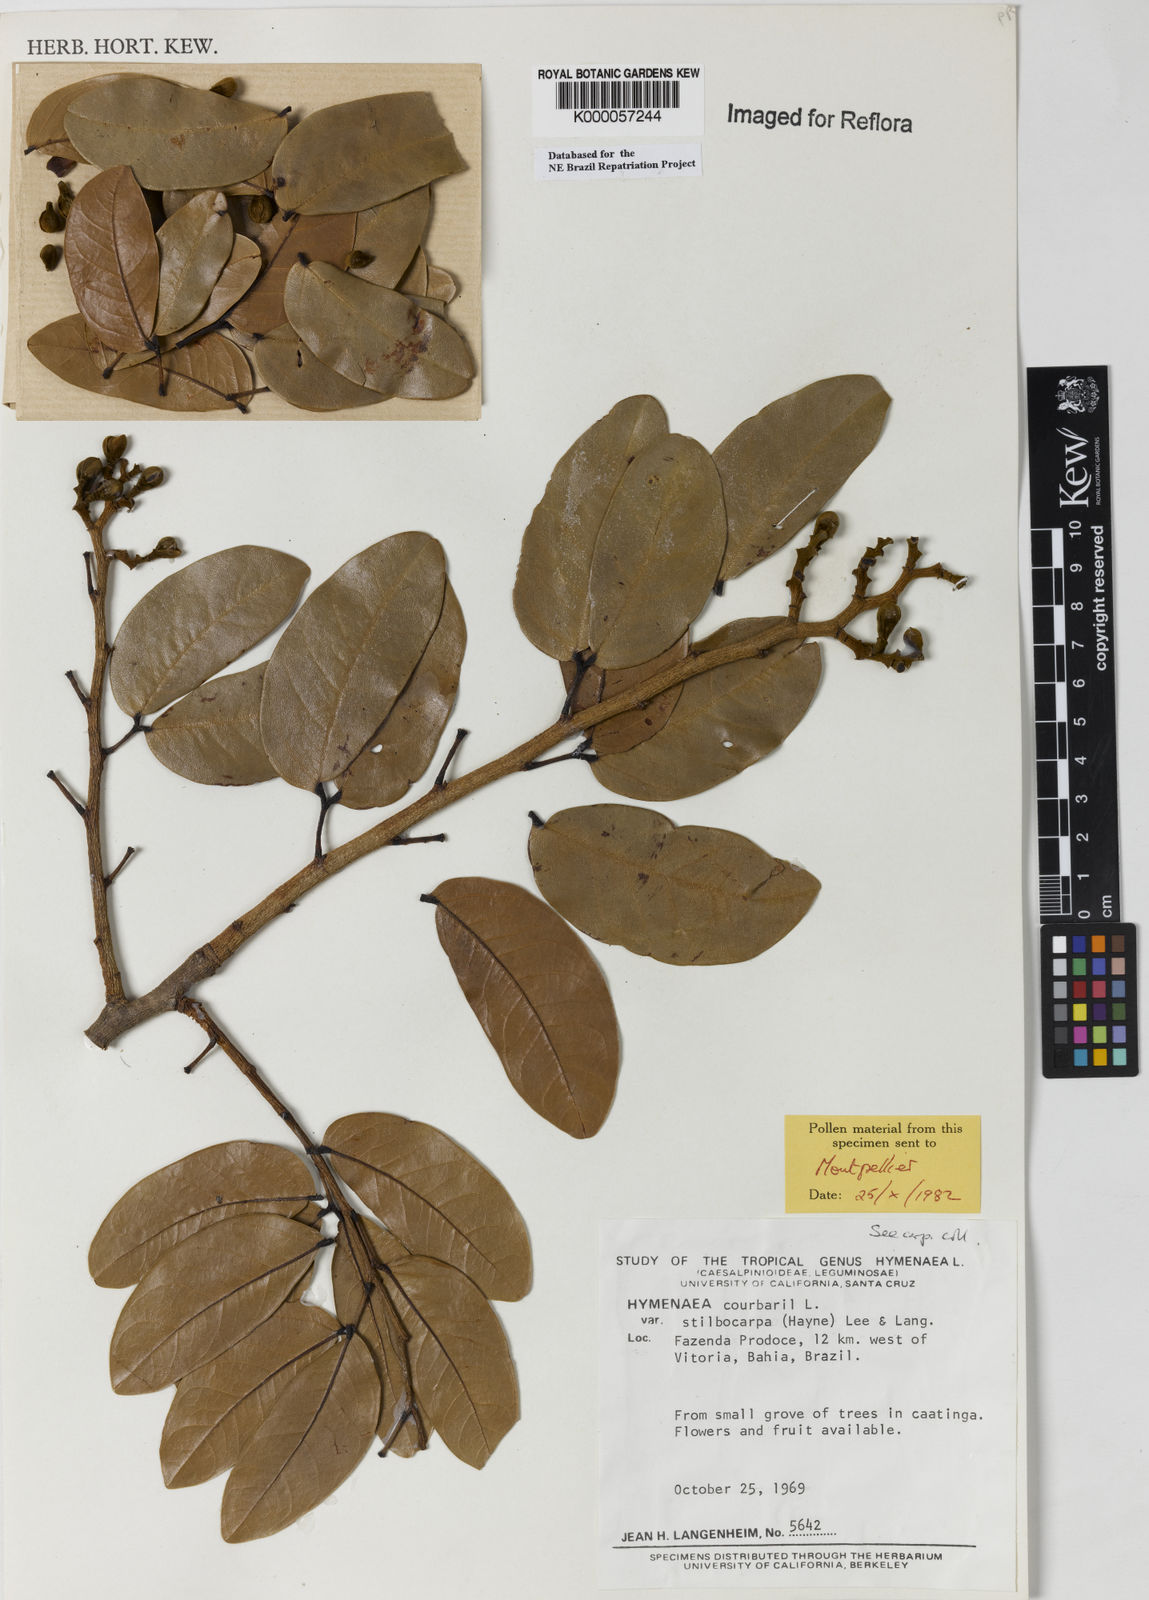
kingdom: Plantae
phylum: Tracheophyta
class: Magnoliopsida
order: Fabales
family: Fabaceae
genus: Hymenaea
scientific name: Hymenaea courbaril
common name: Brazilian copal
